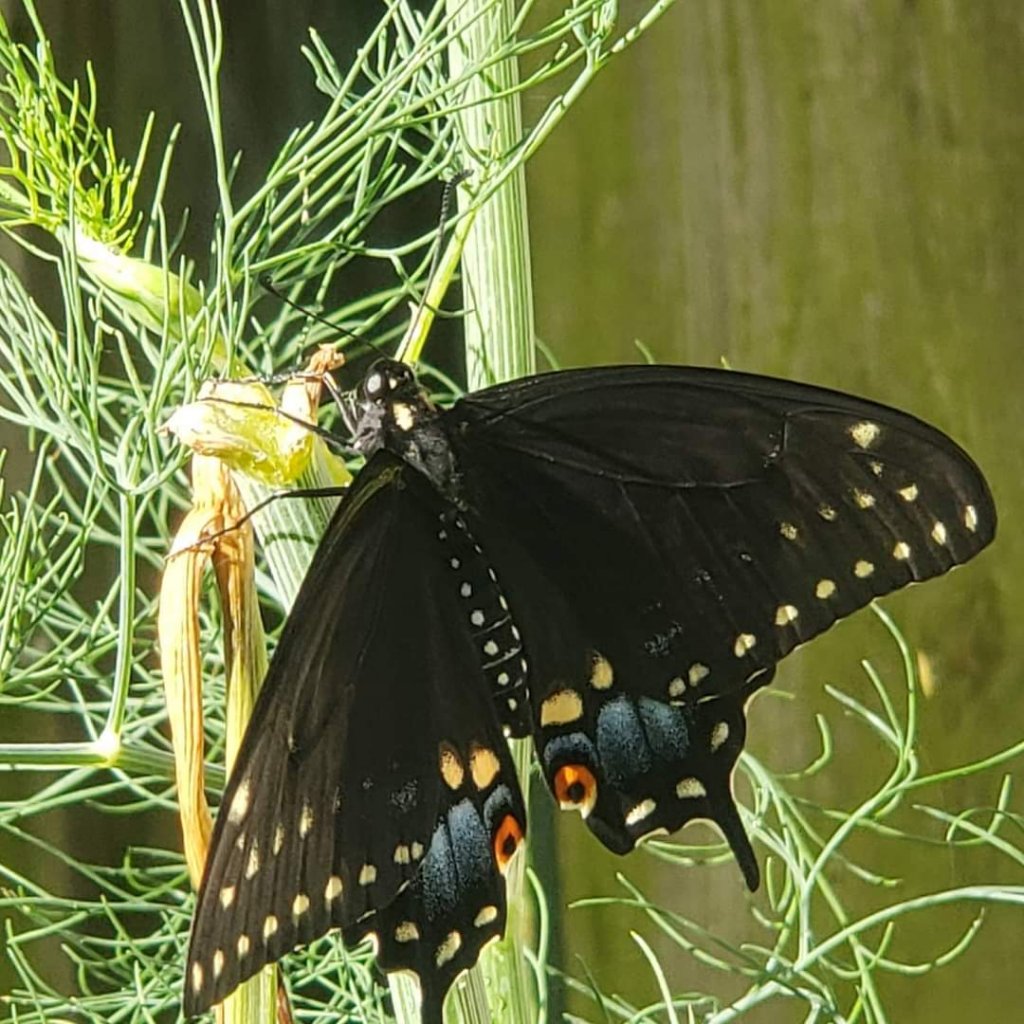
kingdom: Animalia
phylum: Arthropoda
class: Insecta
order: Lepidoptera
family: Papilionidae
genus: Papilio
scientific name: Papilio polyxenes
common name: Black Swallowtail
